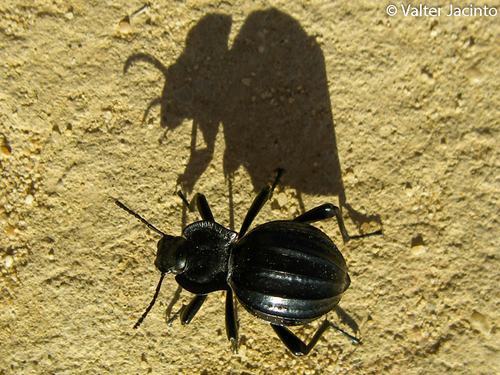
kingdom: Animalia
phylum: Arthropoda
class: Insecta
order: Coleoptera
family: Tenebrionidae
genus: Akis
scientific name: Akis
